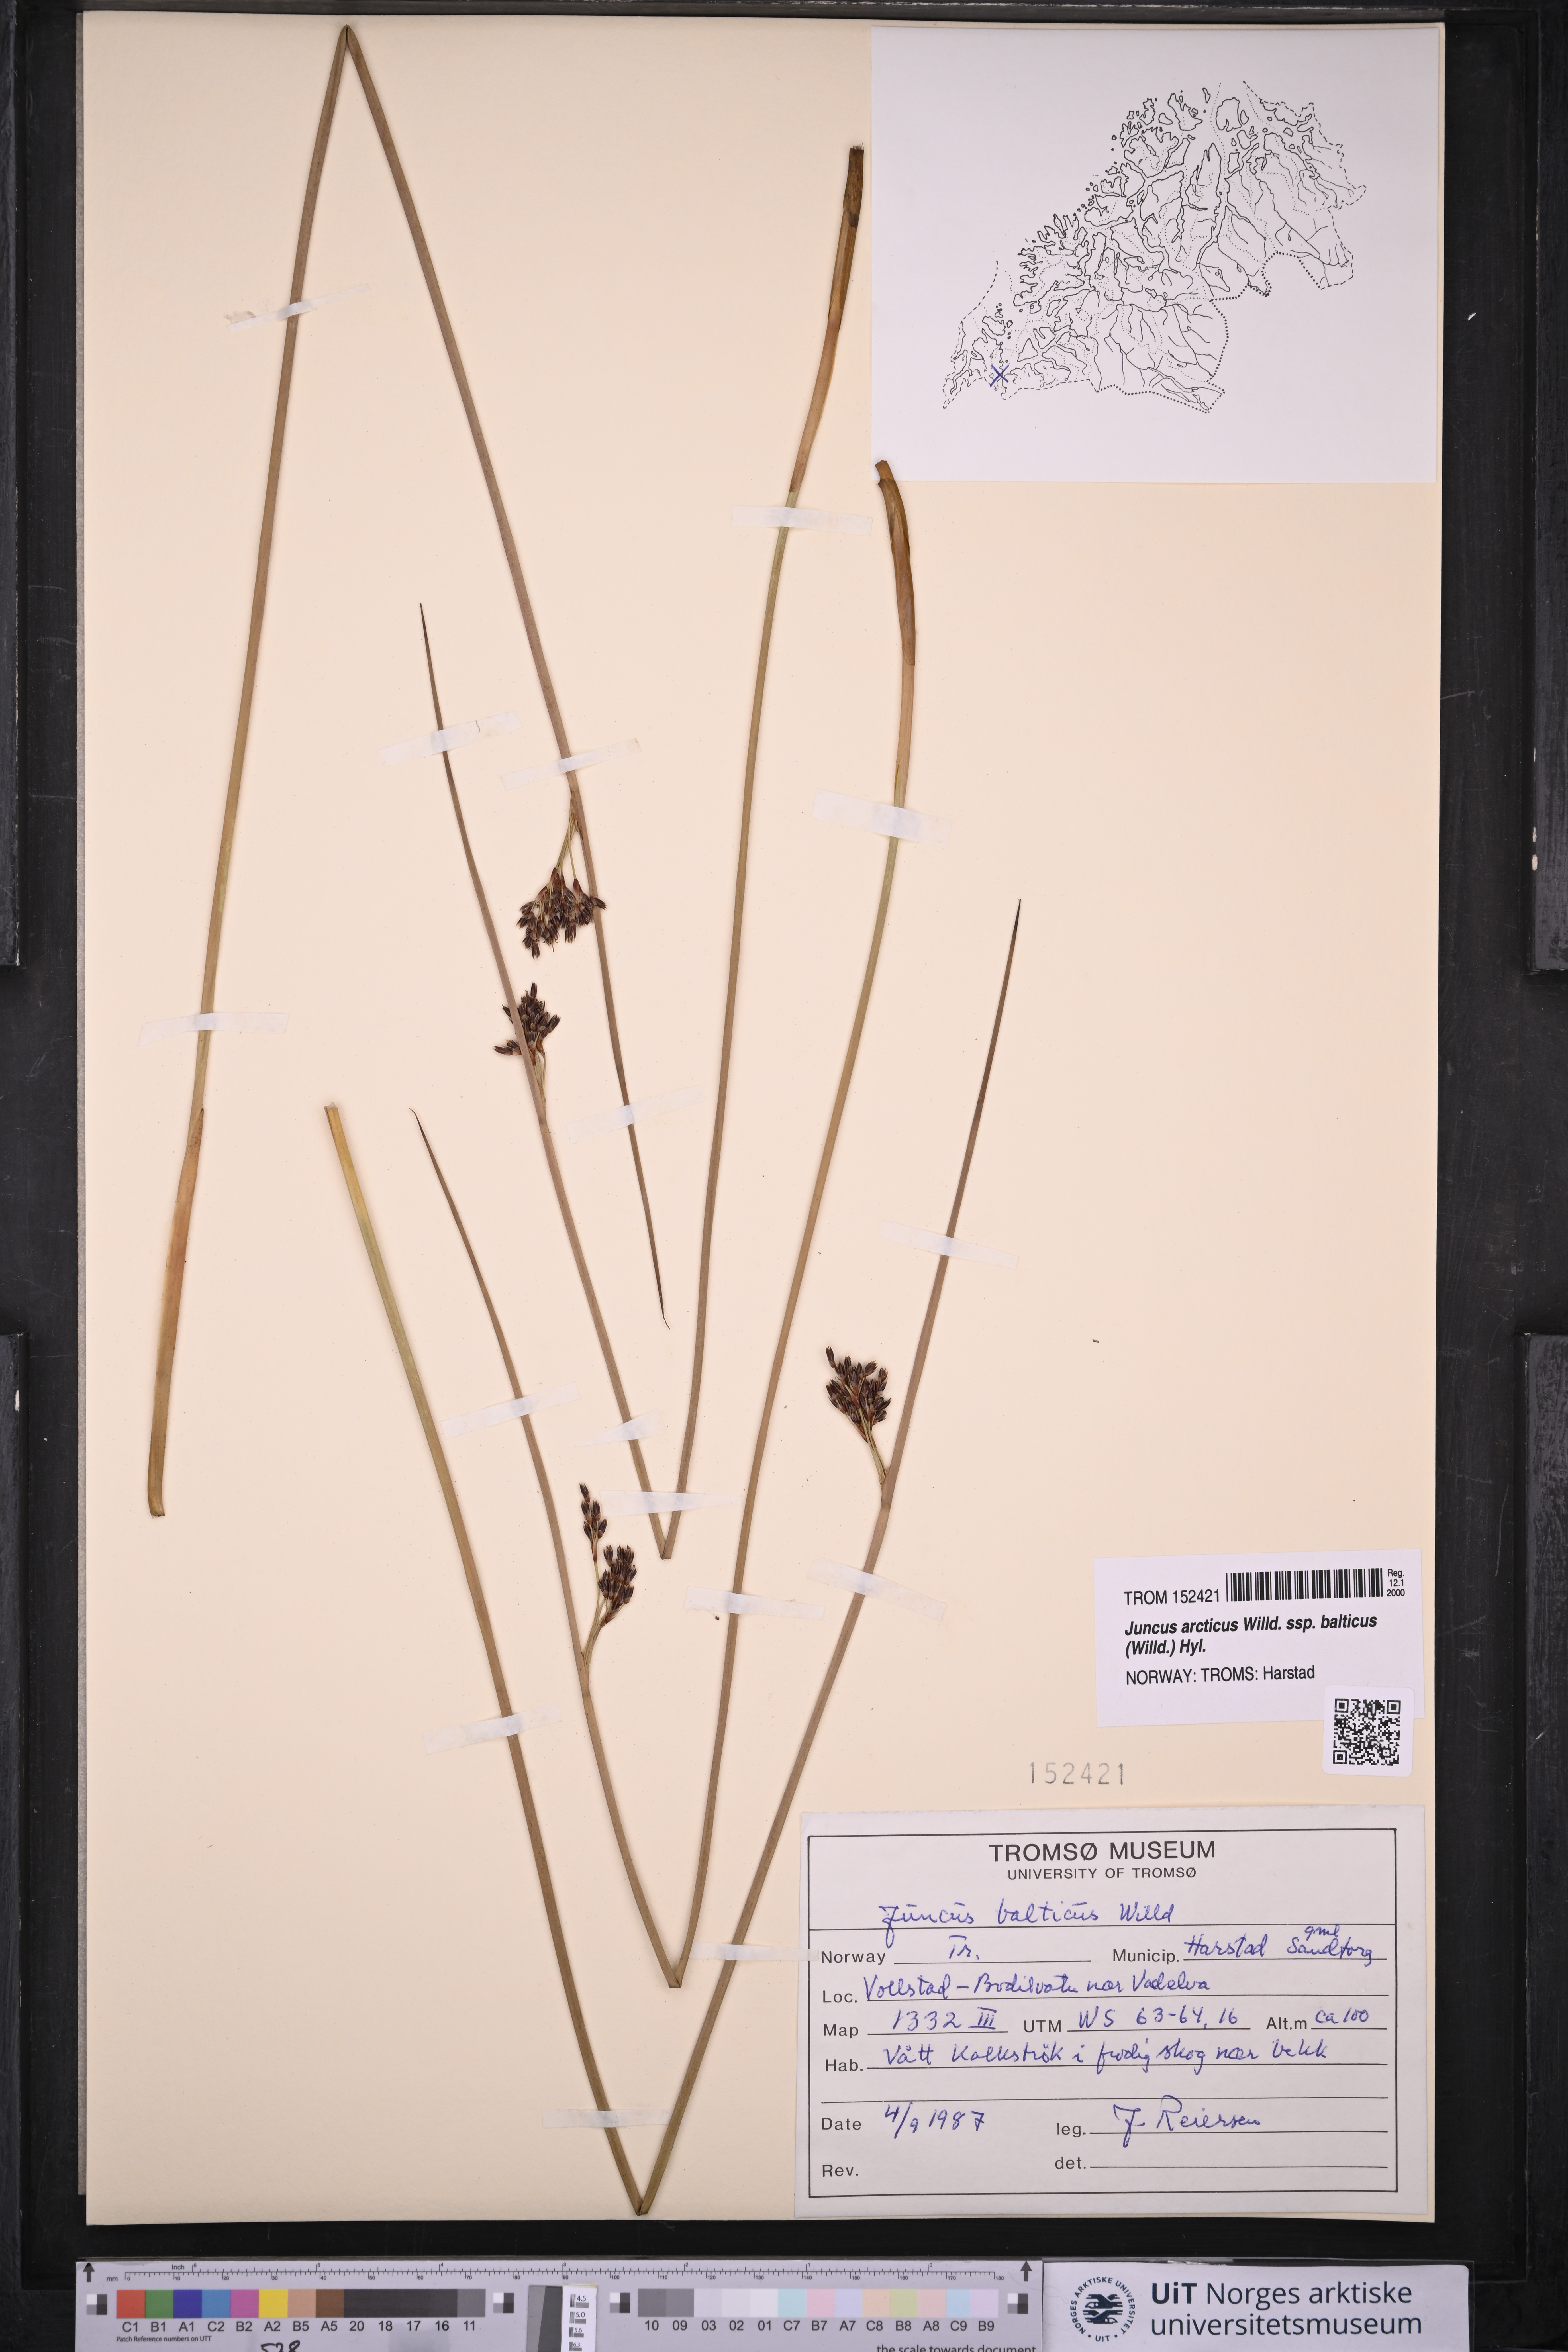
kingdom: Plantae
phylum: Tracheophyta
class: Liliopsida
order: Poales
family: Juncaceae
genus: Juncus
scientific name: Juncus balticus
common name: Baltic rush
